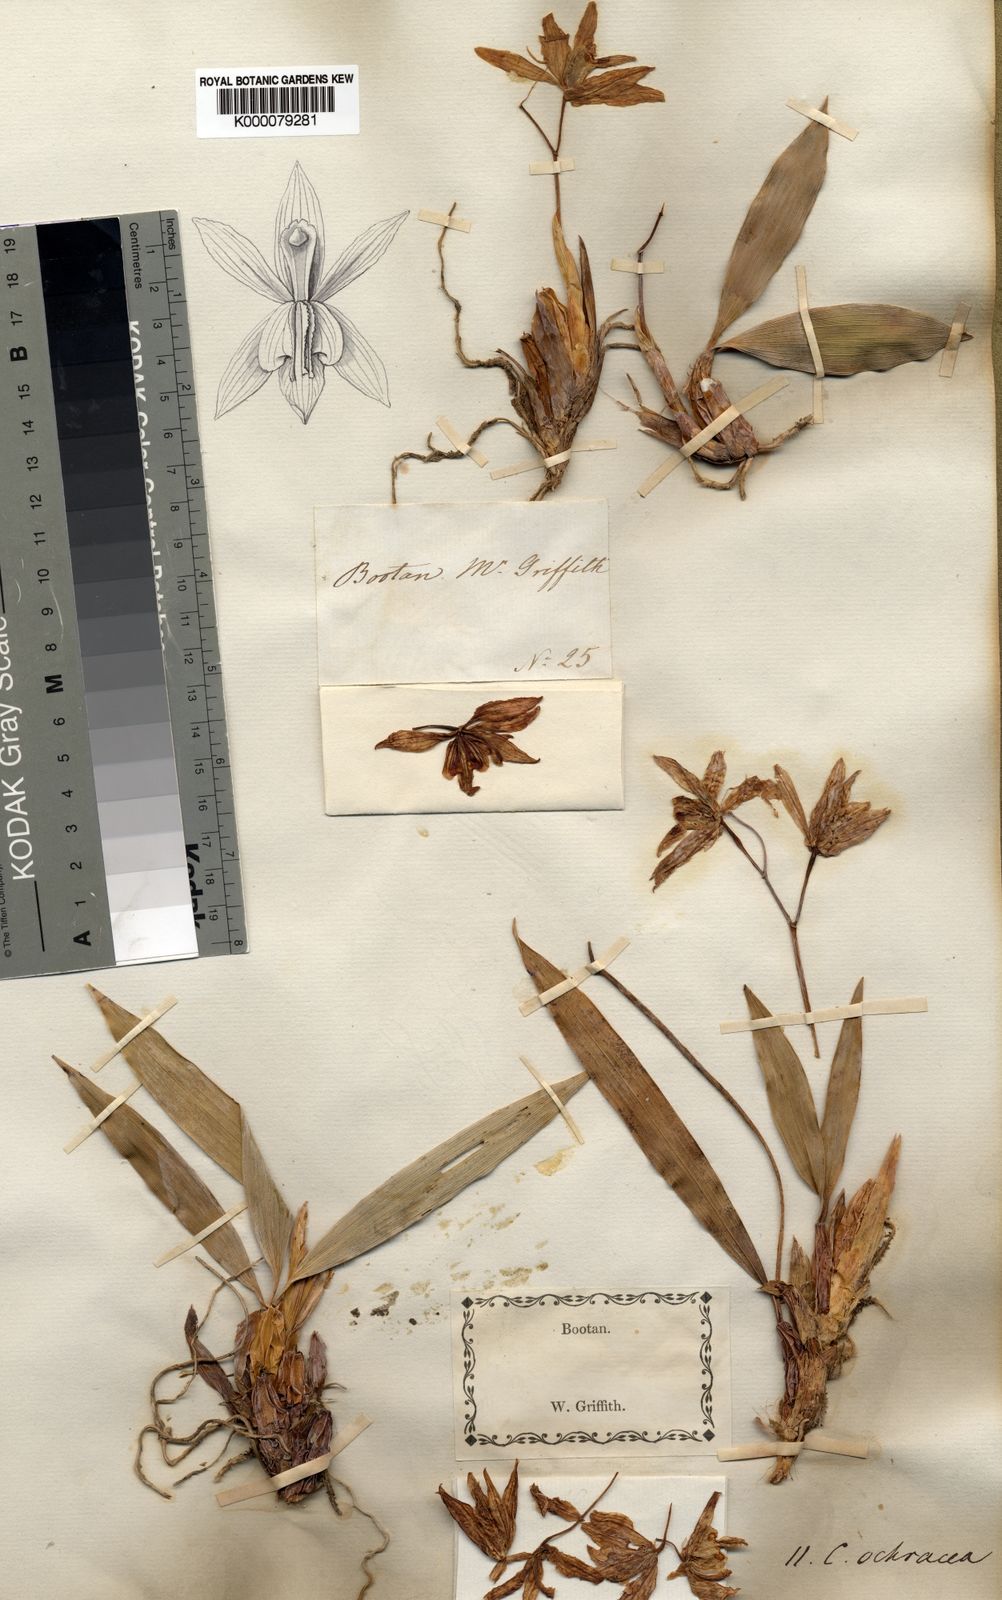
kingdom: Plantae
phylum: Tracheophyta
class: Liliopsida
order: Asparagales
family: Orchidaceae
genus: Coelogyne
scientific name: Coelogyne nitida
